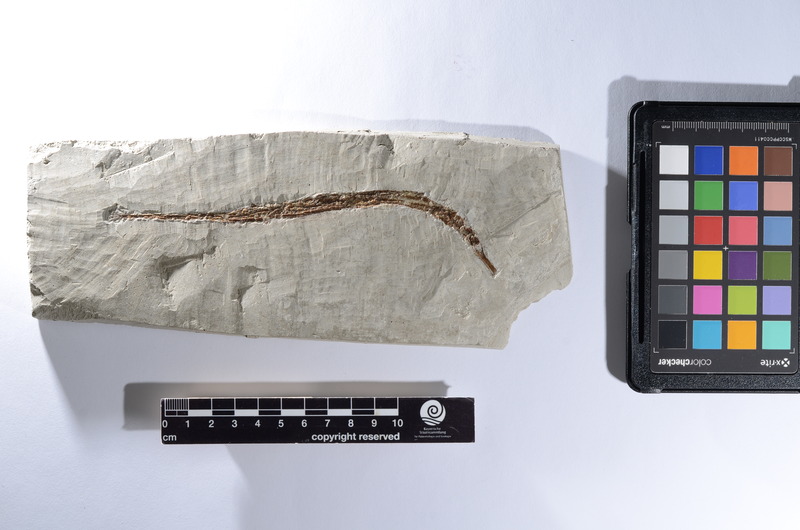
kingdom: Animalia
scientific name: Animalia
